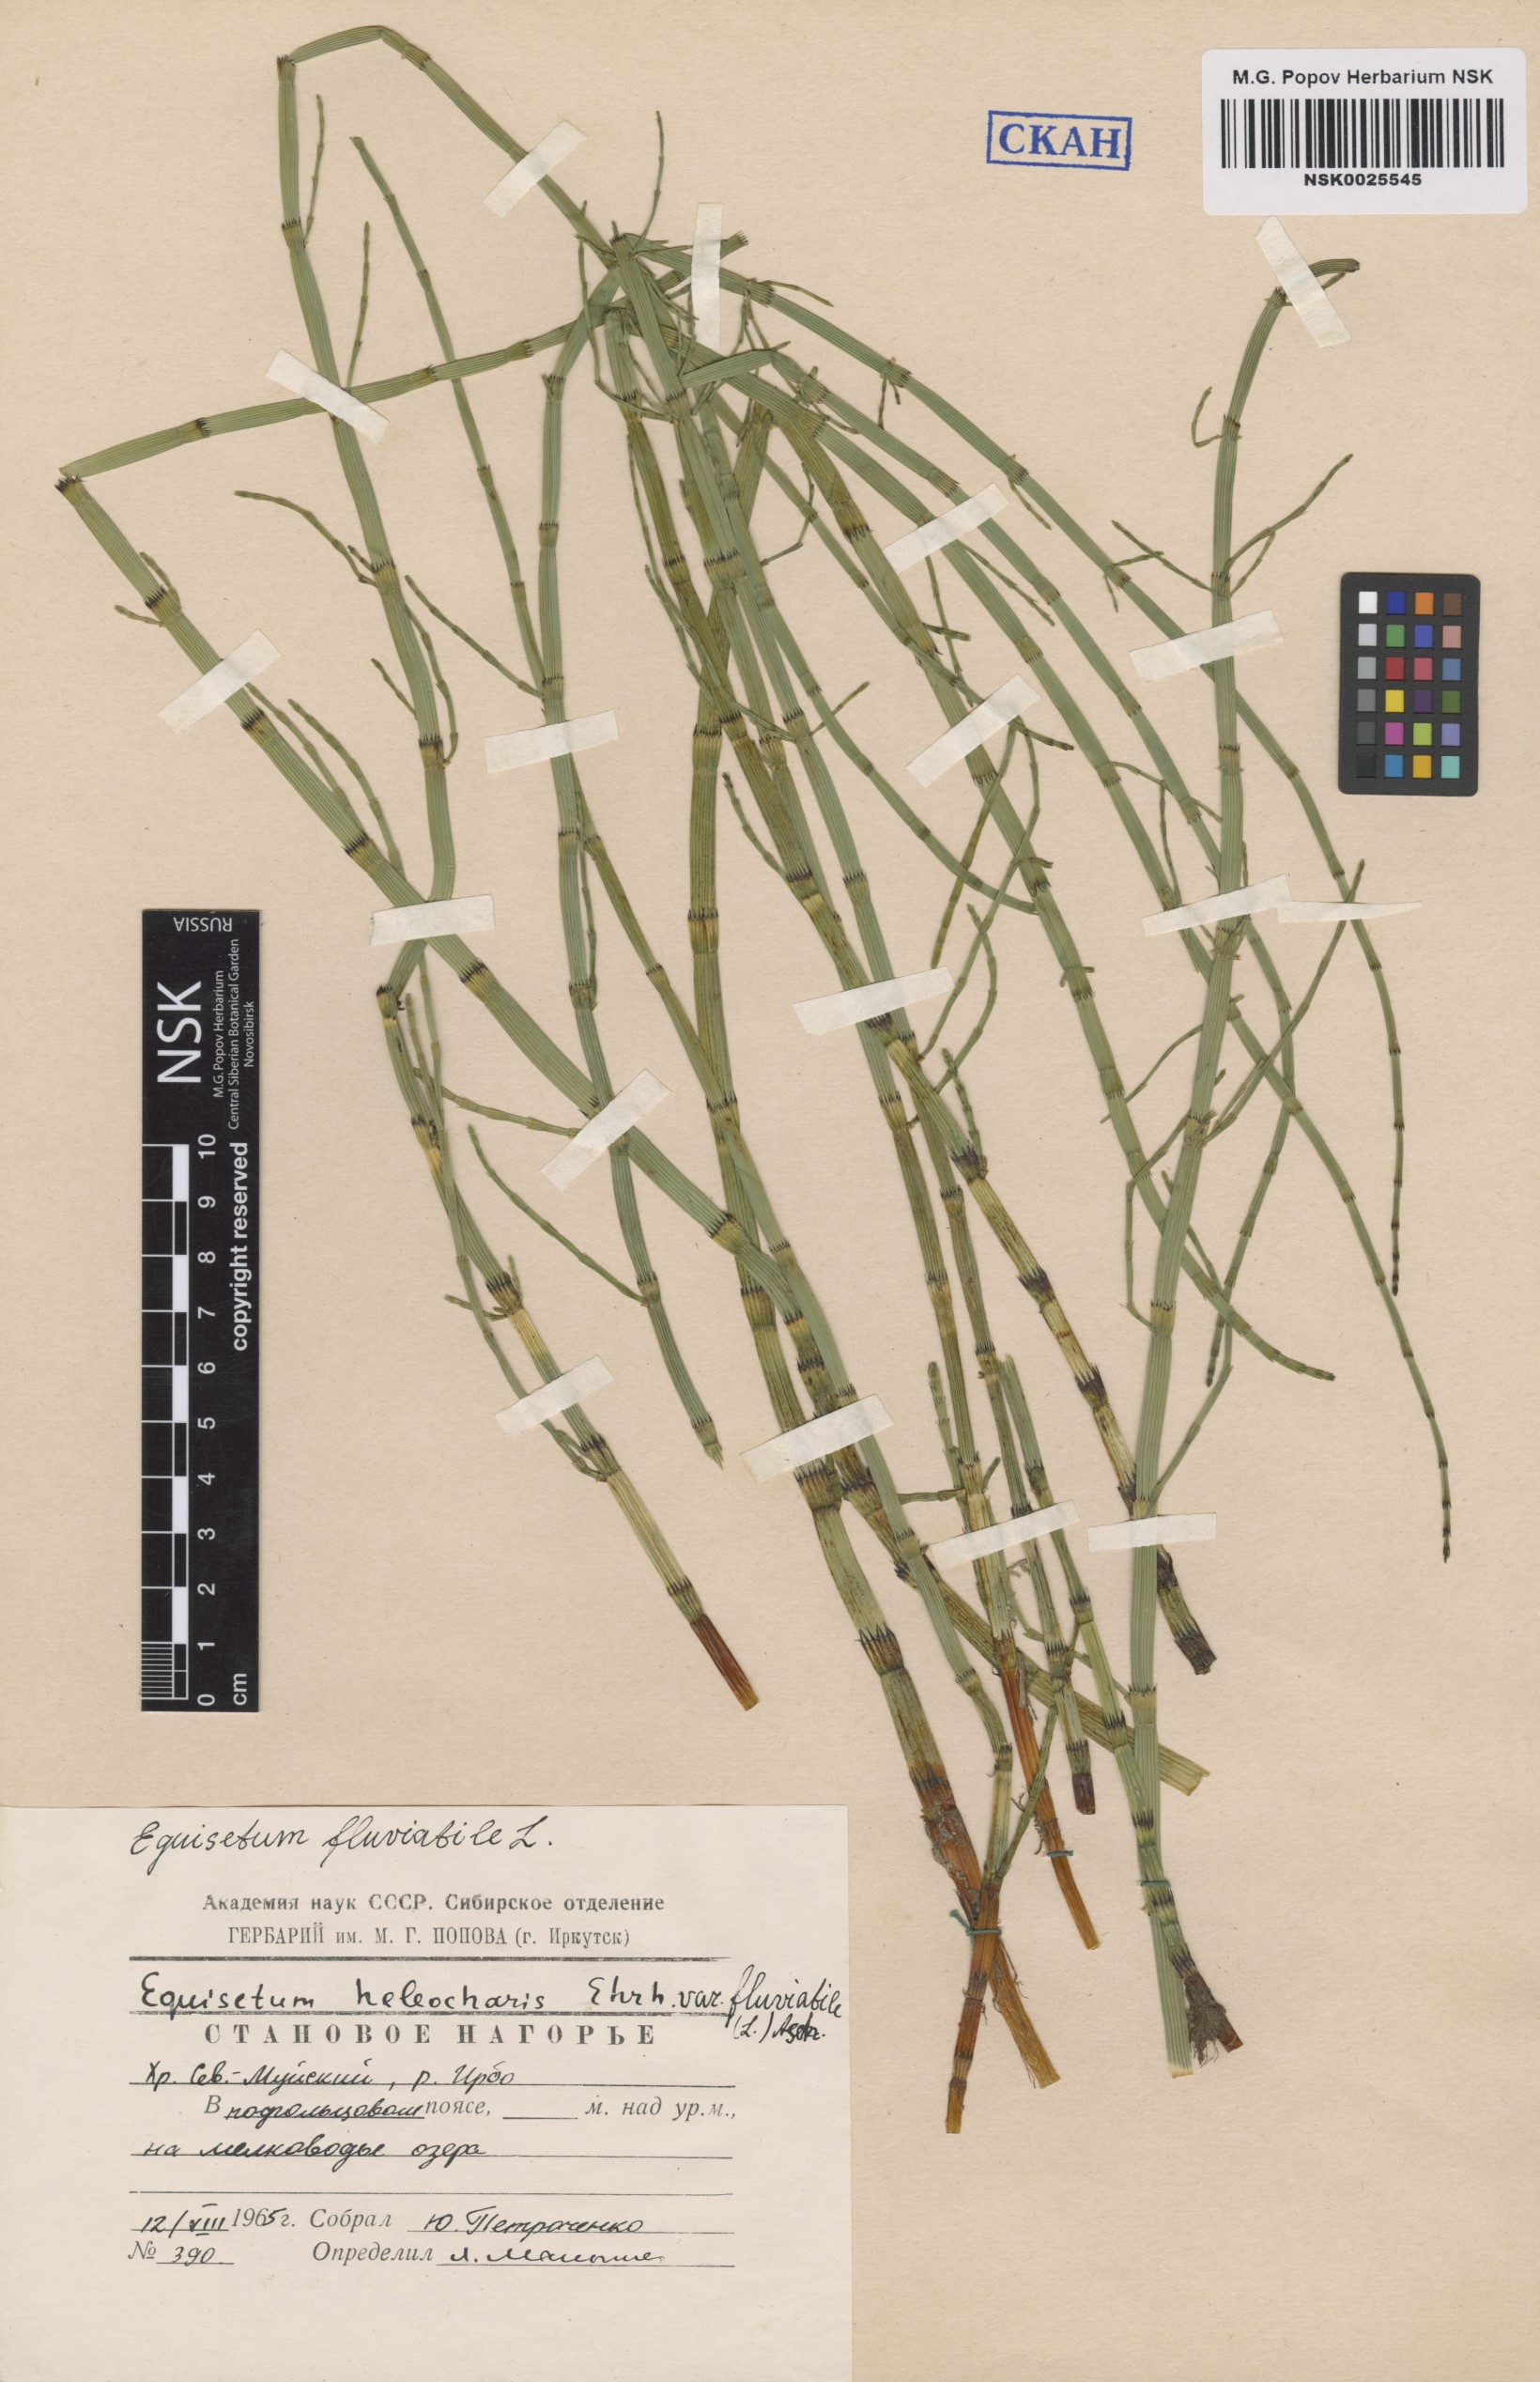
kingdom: Plantae
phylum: Tracheophyta
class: Polypodiopsida
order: Equisetales
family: Equisetaceae
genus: Equisetum
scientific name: Equisetum fluviatile
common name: Water horsetail
